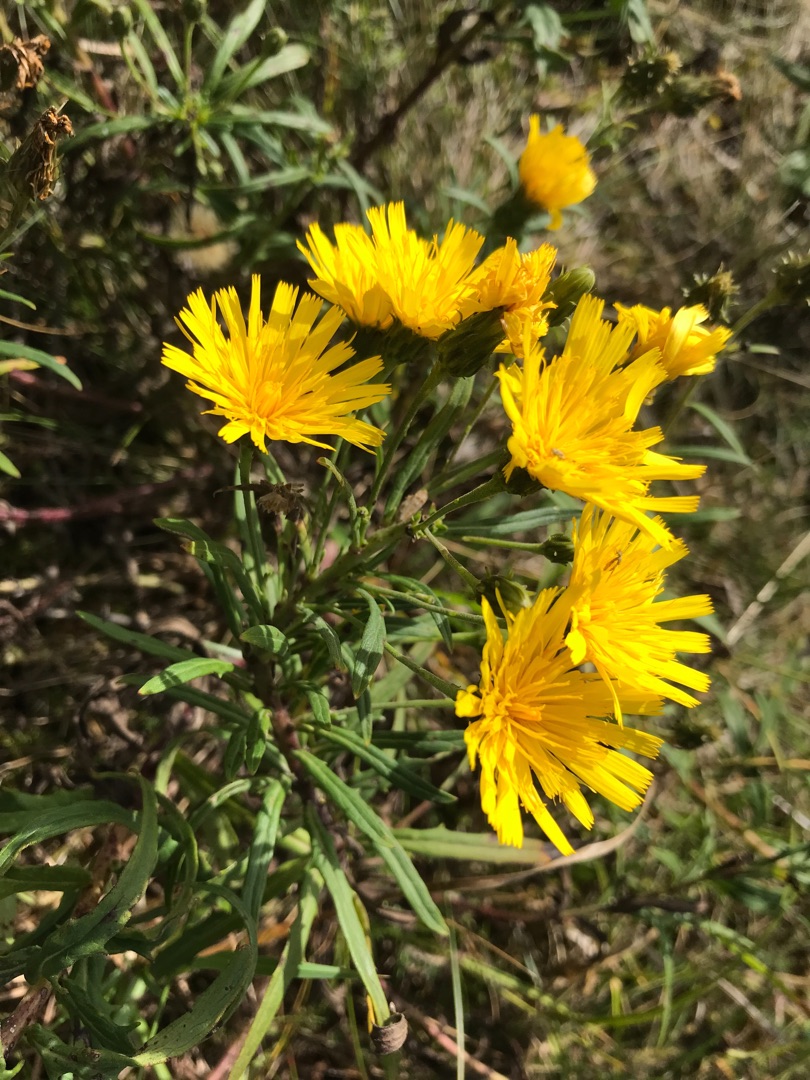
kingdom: Plantae
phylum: Tracheophyta
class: Magnoliopsida
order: Asterales
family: Asteraceae
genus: Hieracium
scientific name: Hieracium umbellatum
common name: Smalbladet høgeurt
